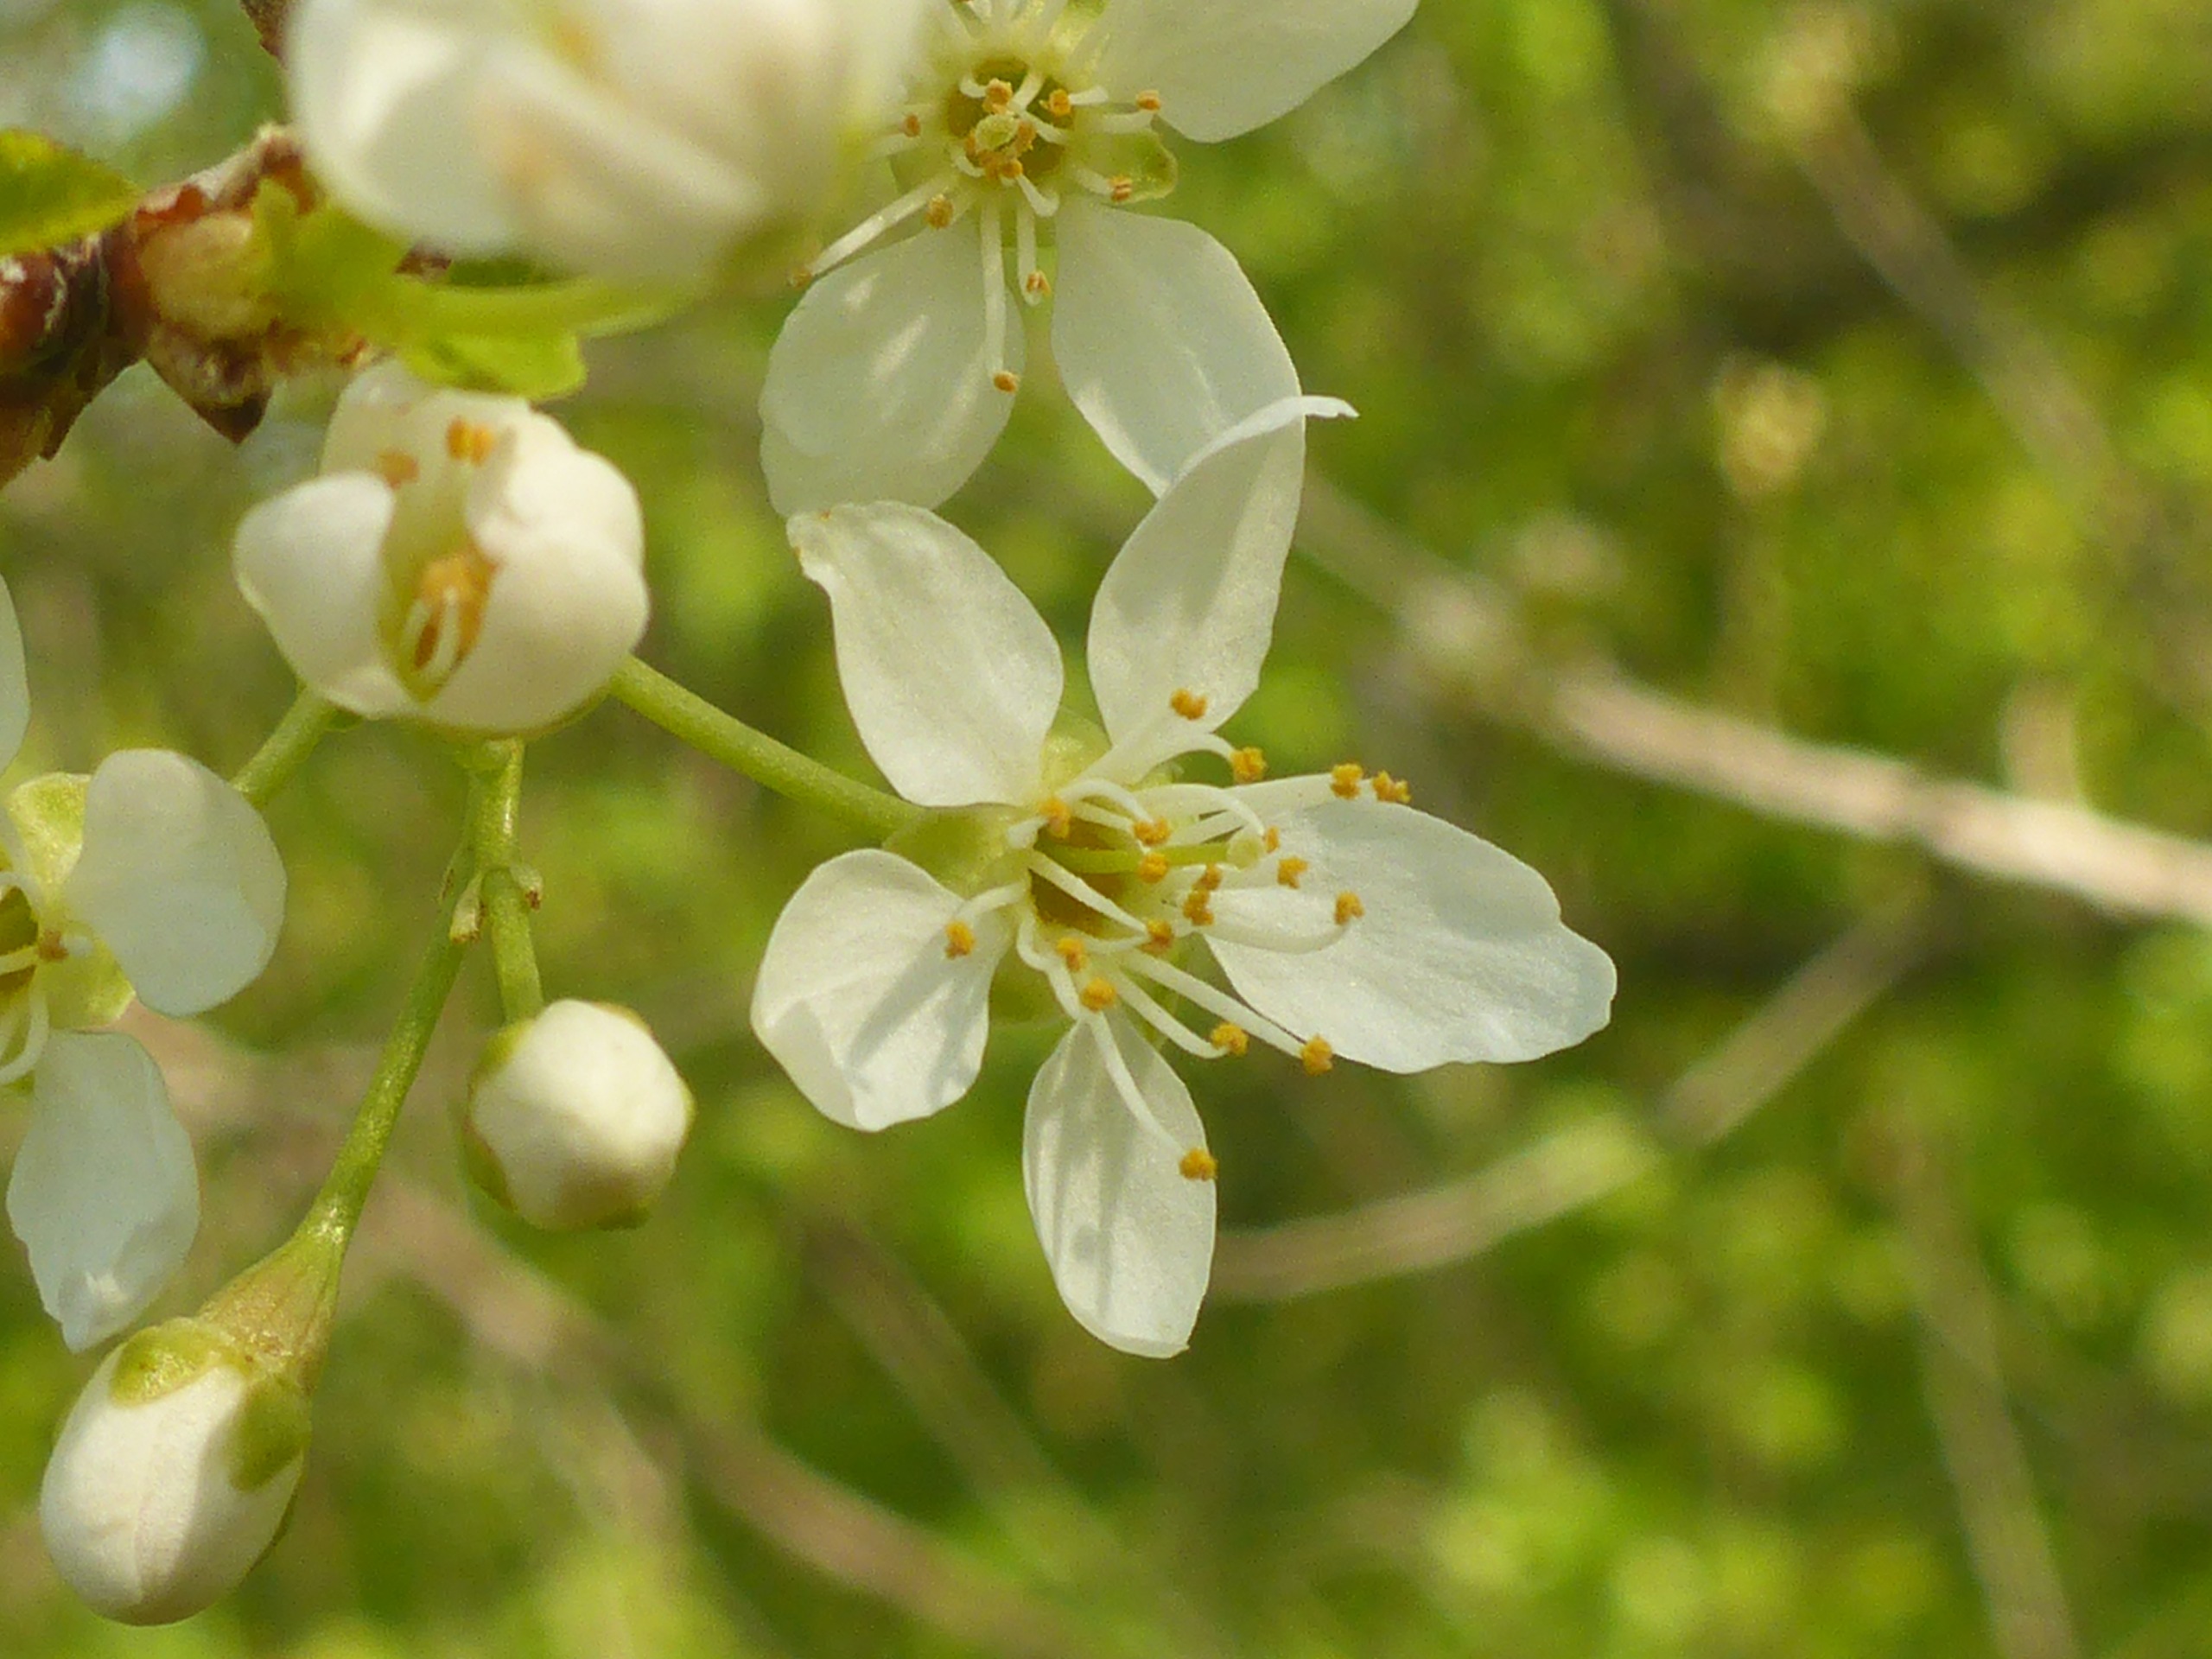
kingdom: Plantae
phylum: Tracheophyta
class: Magnoliopsida
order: Rosales
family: Rosaceae
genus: Prunus
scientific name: Prunus mahaleb
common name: Weichsel
